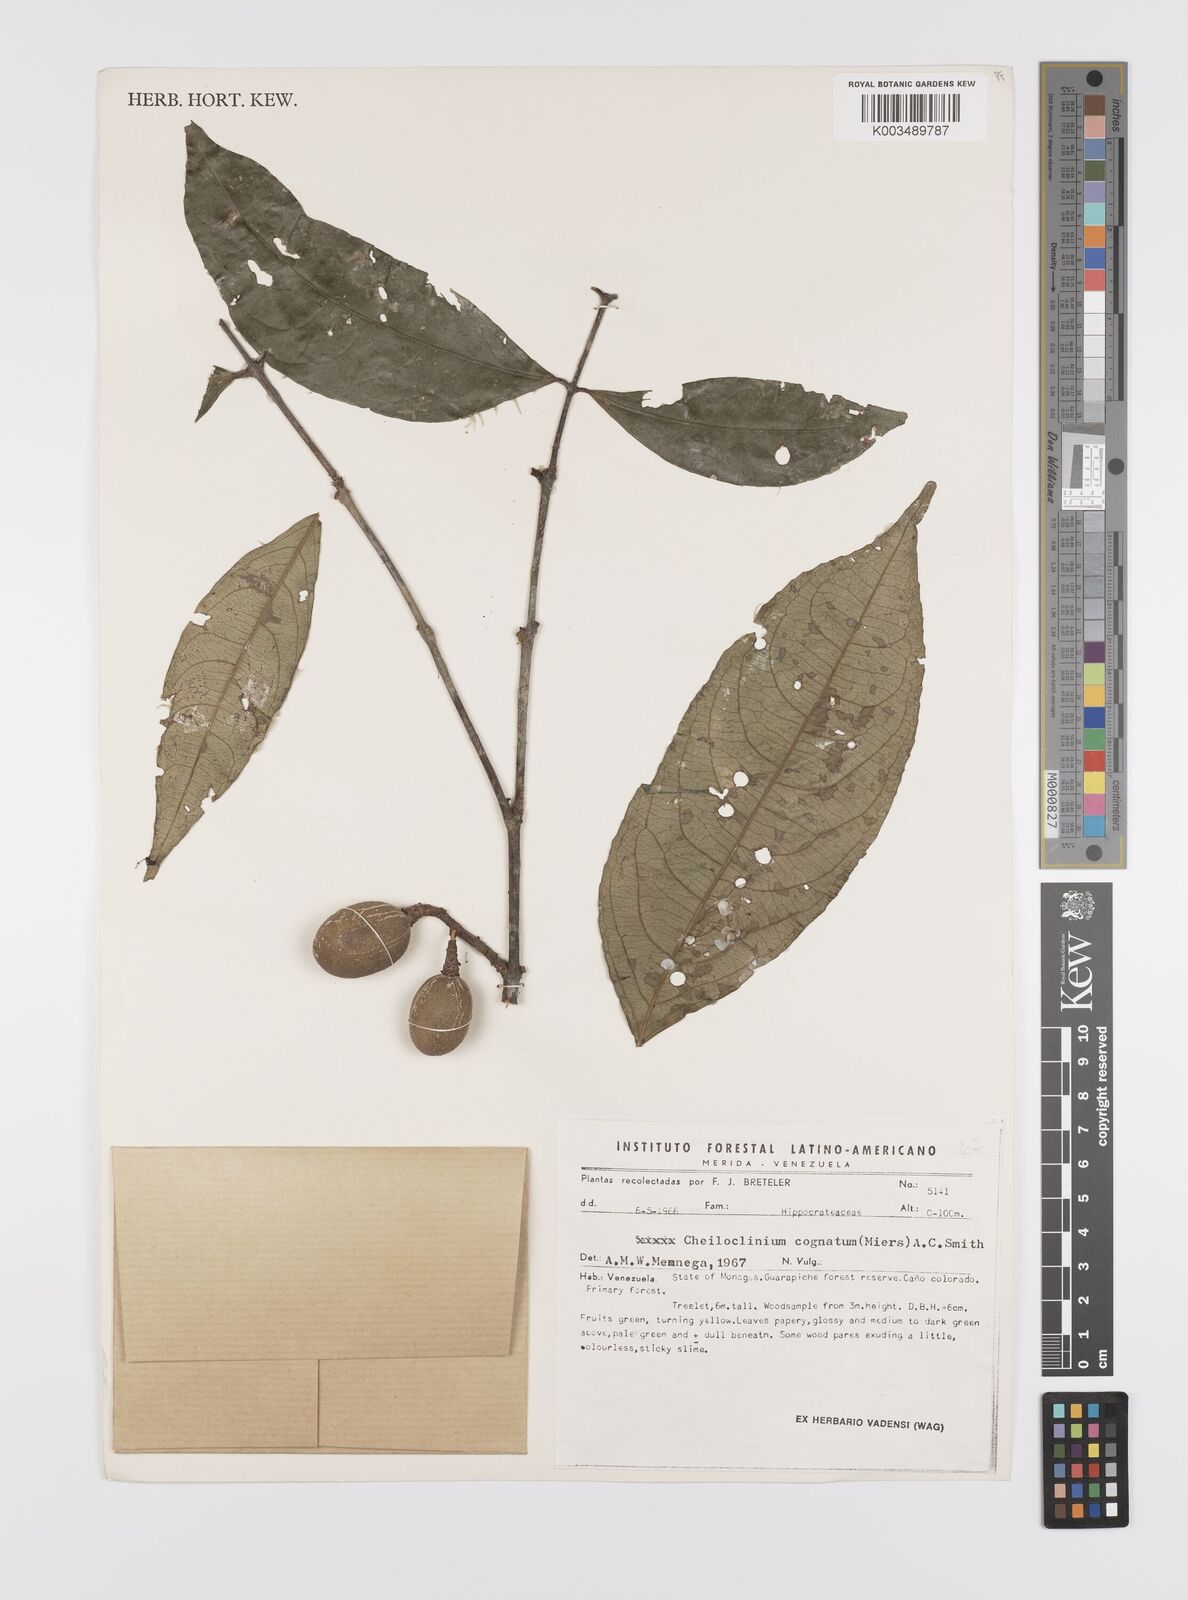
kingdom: Plantae
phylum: Tracheophyta
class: Magnoliopsida
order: Celastrales
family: Celastraceae
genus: Cheiloclinium
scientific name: Cheiloclinium cognatum
